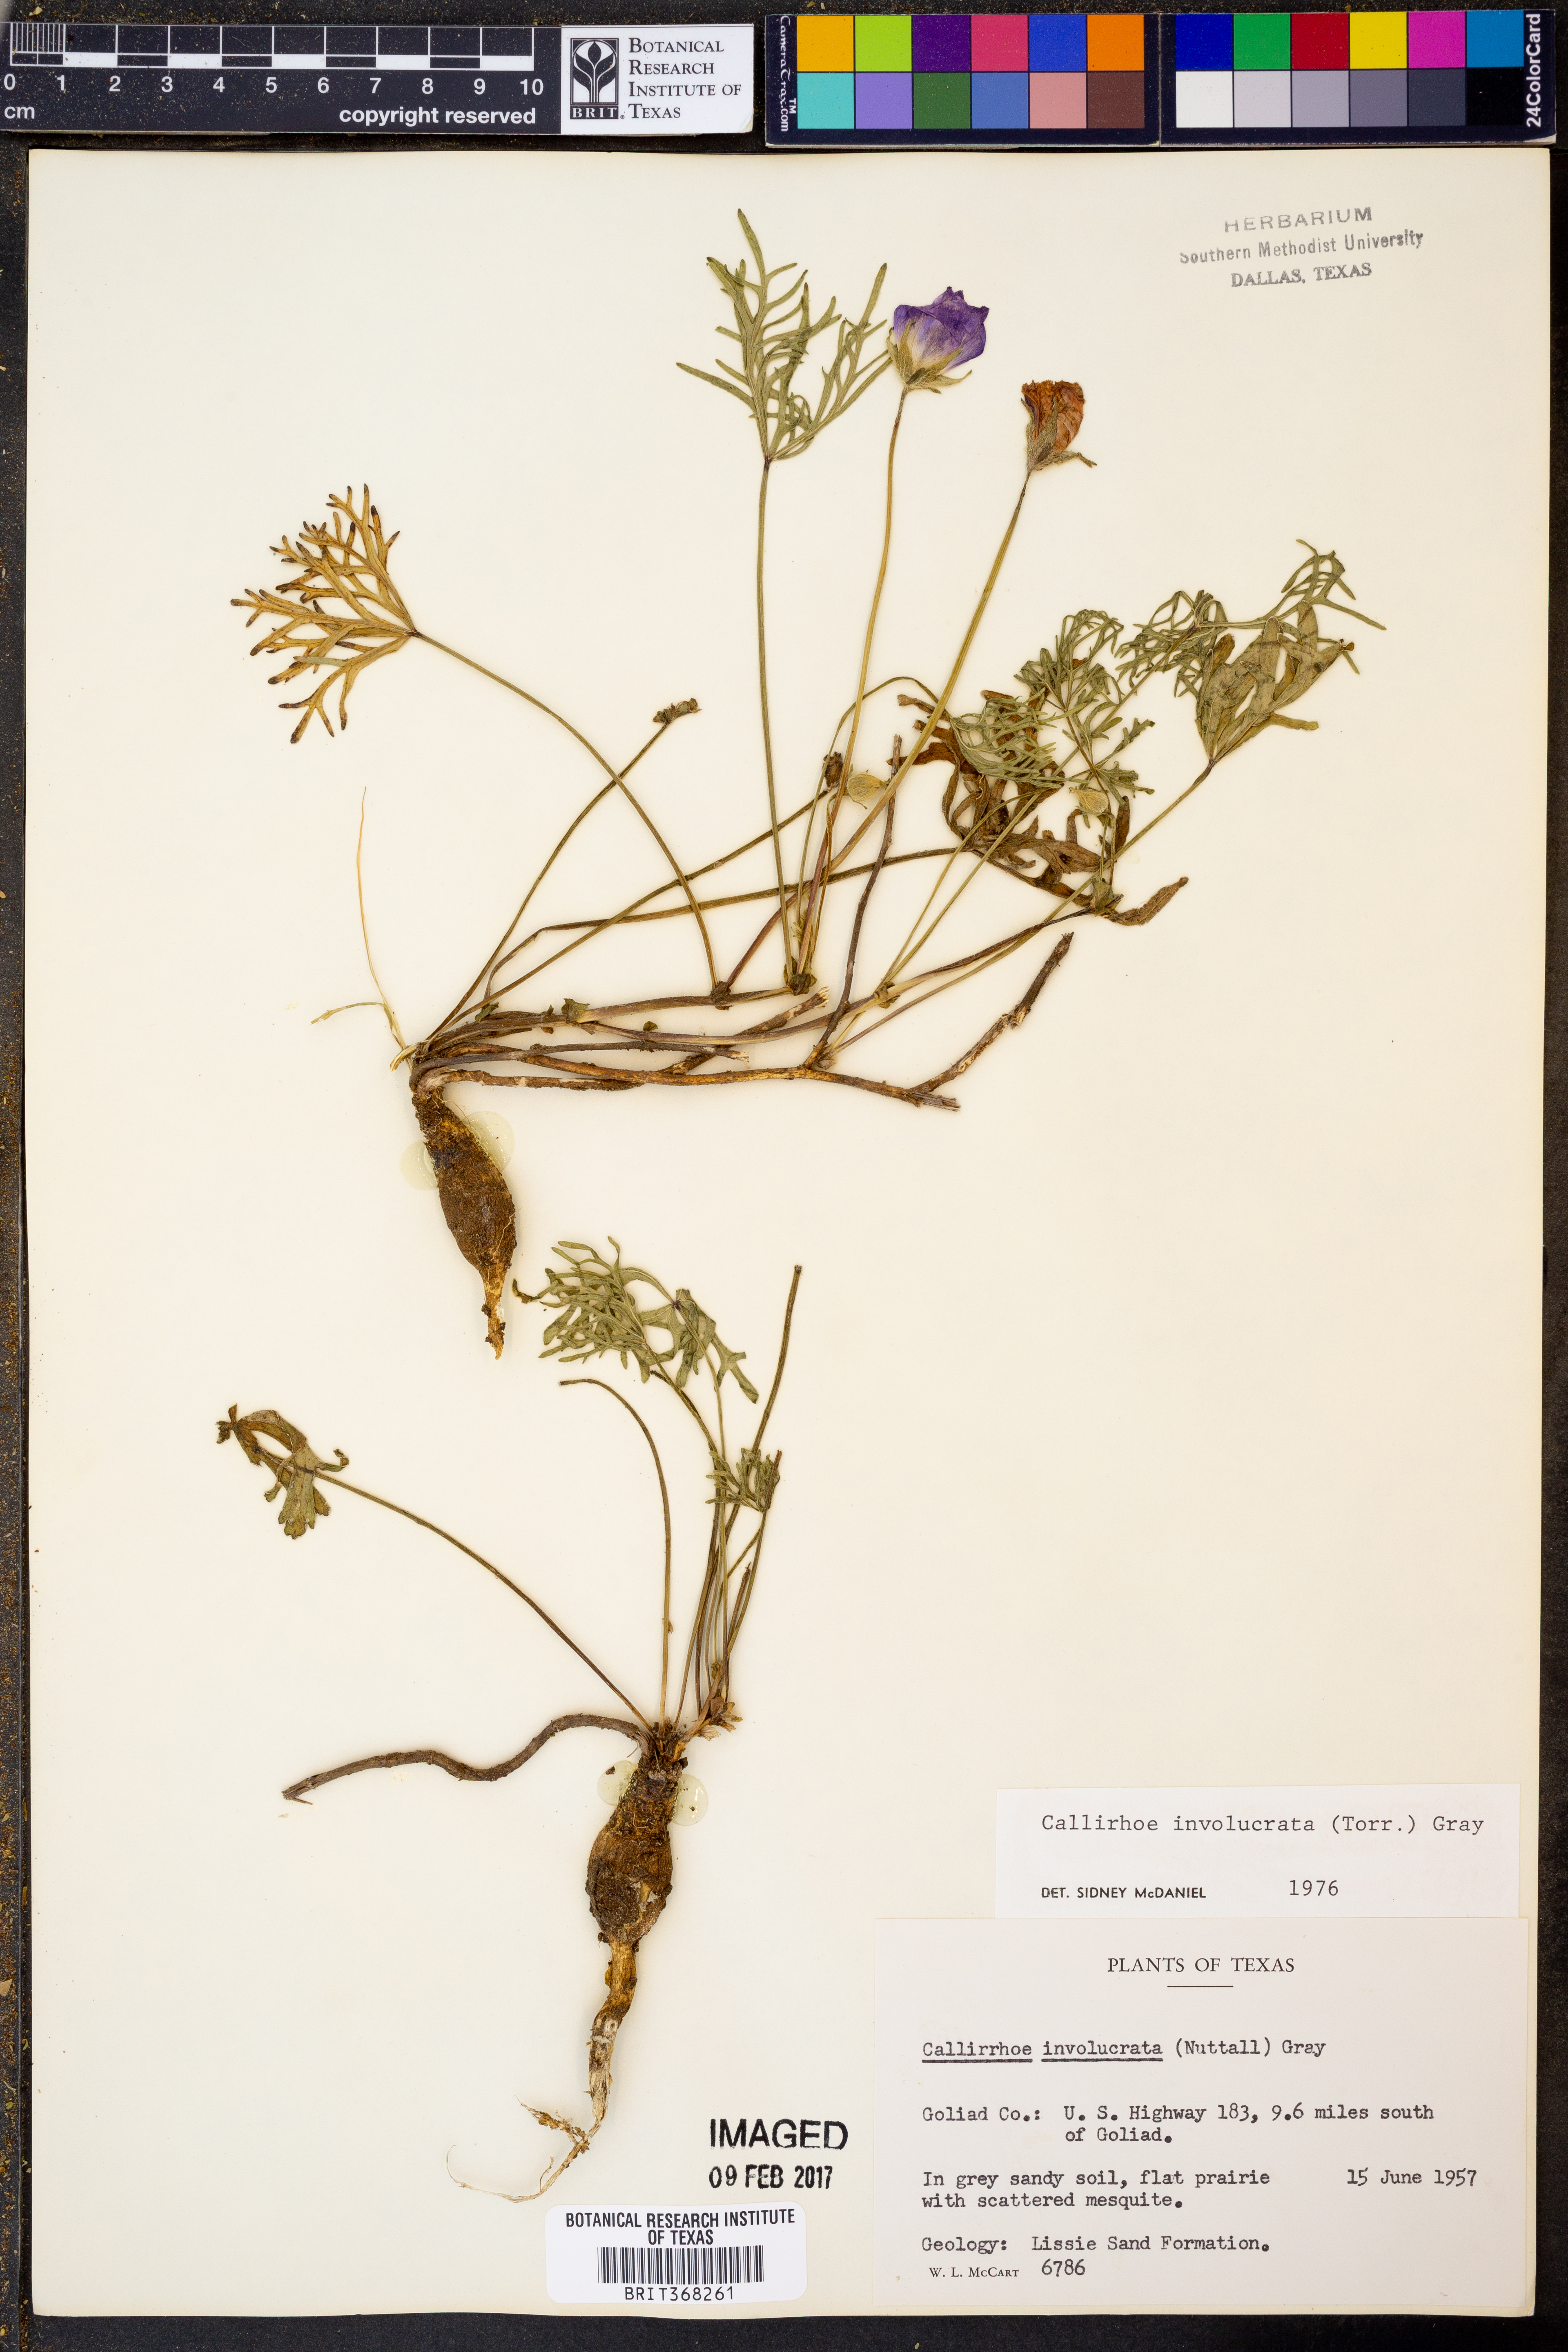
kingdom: Plantae
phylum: Tracheophyta
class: Magnoliopsida
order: Malvales
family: Malvaceae
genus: Callirhoe
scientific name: Callirhoe involucrata
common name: Purple poppy-mallow
